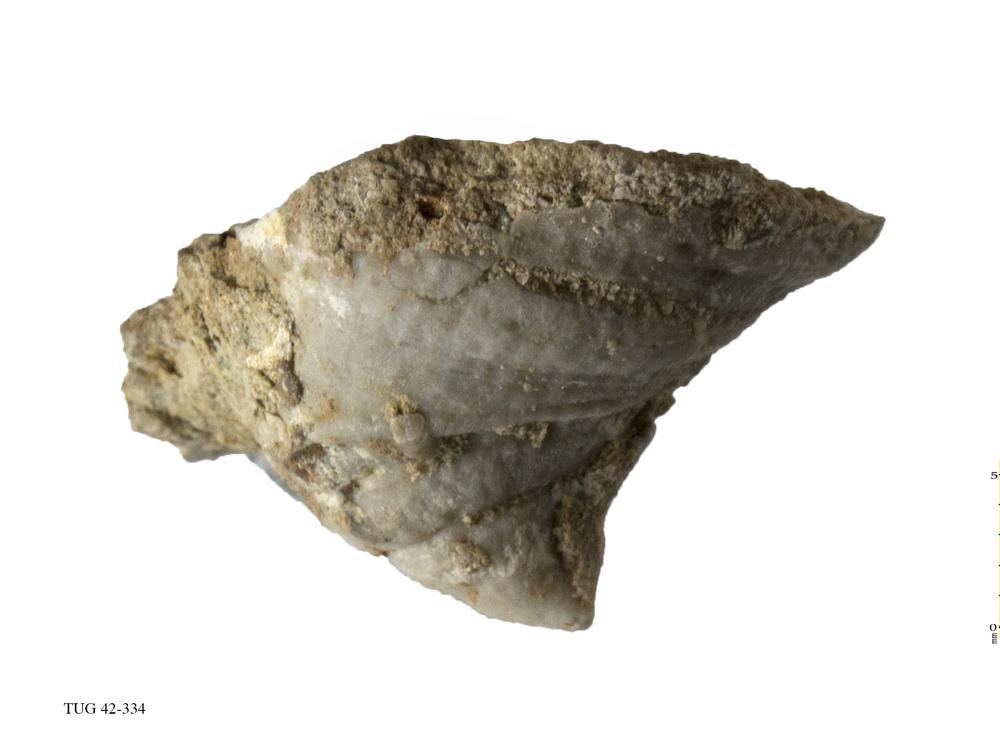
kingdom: Animalia
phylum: Cnidaria
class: Anthozoa
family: Streptelasmatidae
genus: Streptelasma
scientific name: Streptelasma corniculum
